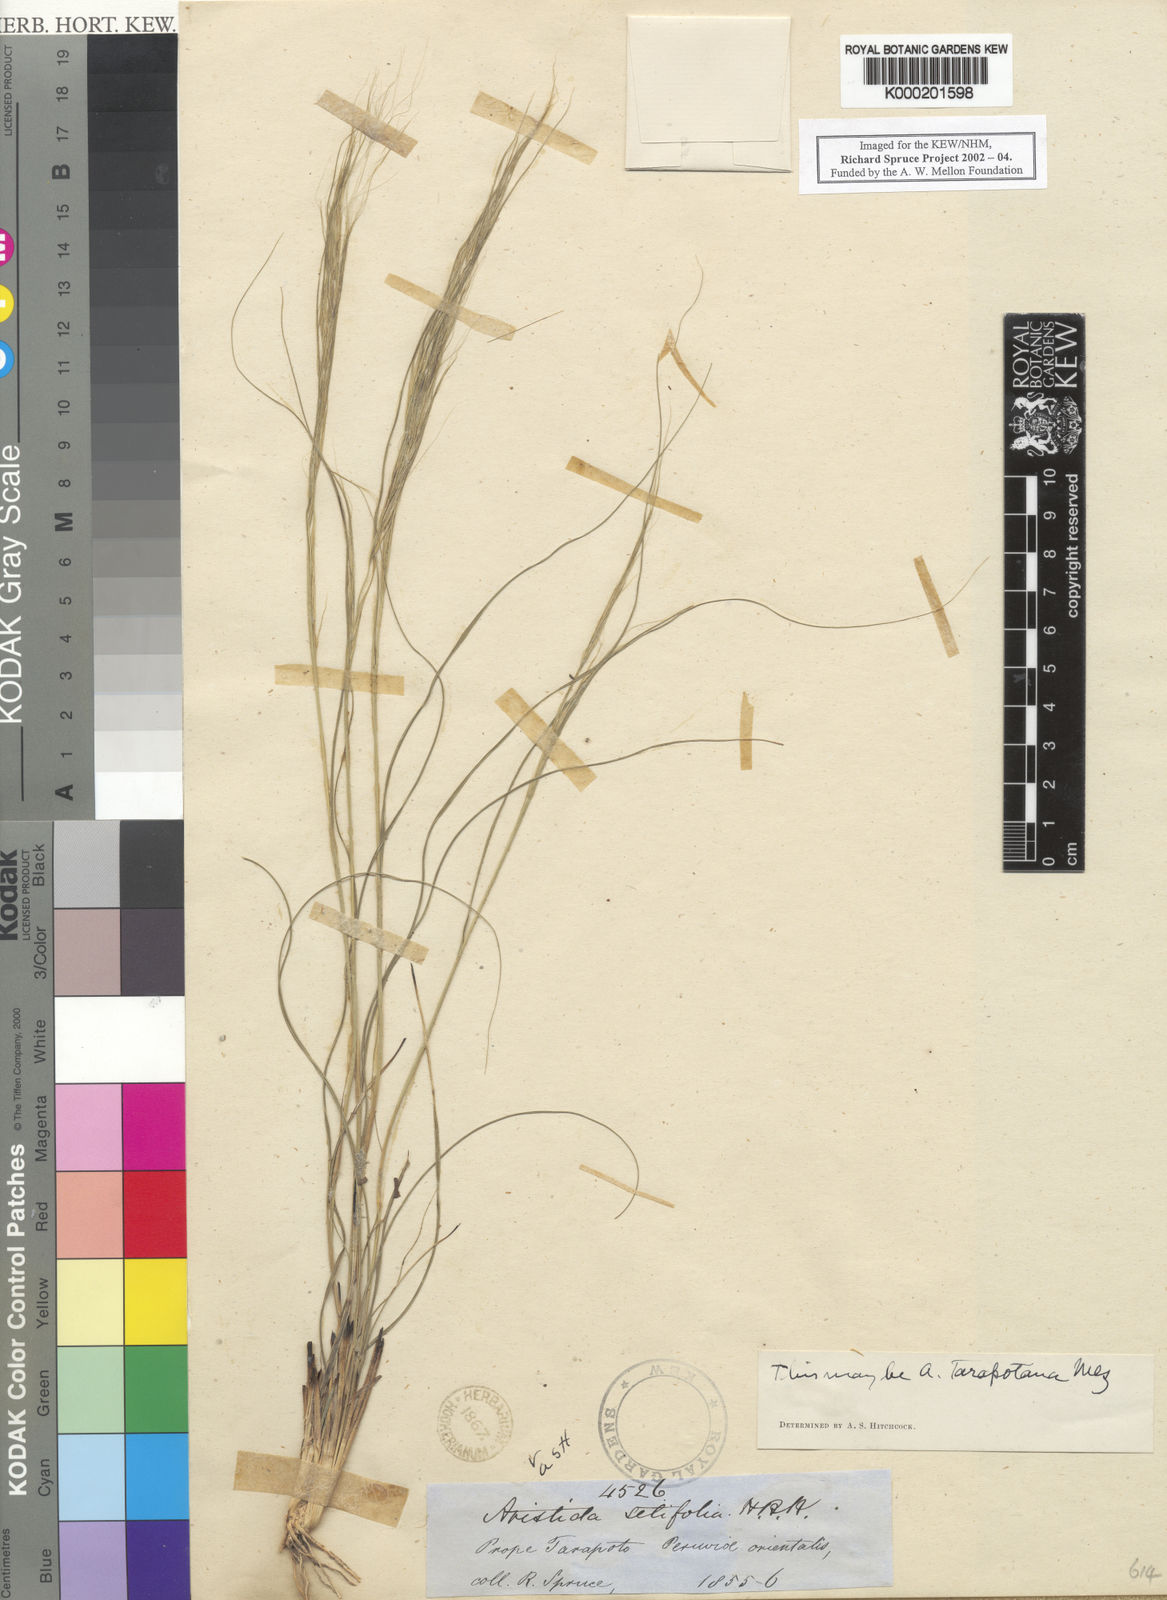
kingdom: Plantae
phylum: Tracheophyta
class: Liliopsida
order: Poales
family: Poaceae
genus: Aristida
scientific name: Aristida setifolia
